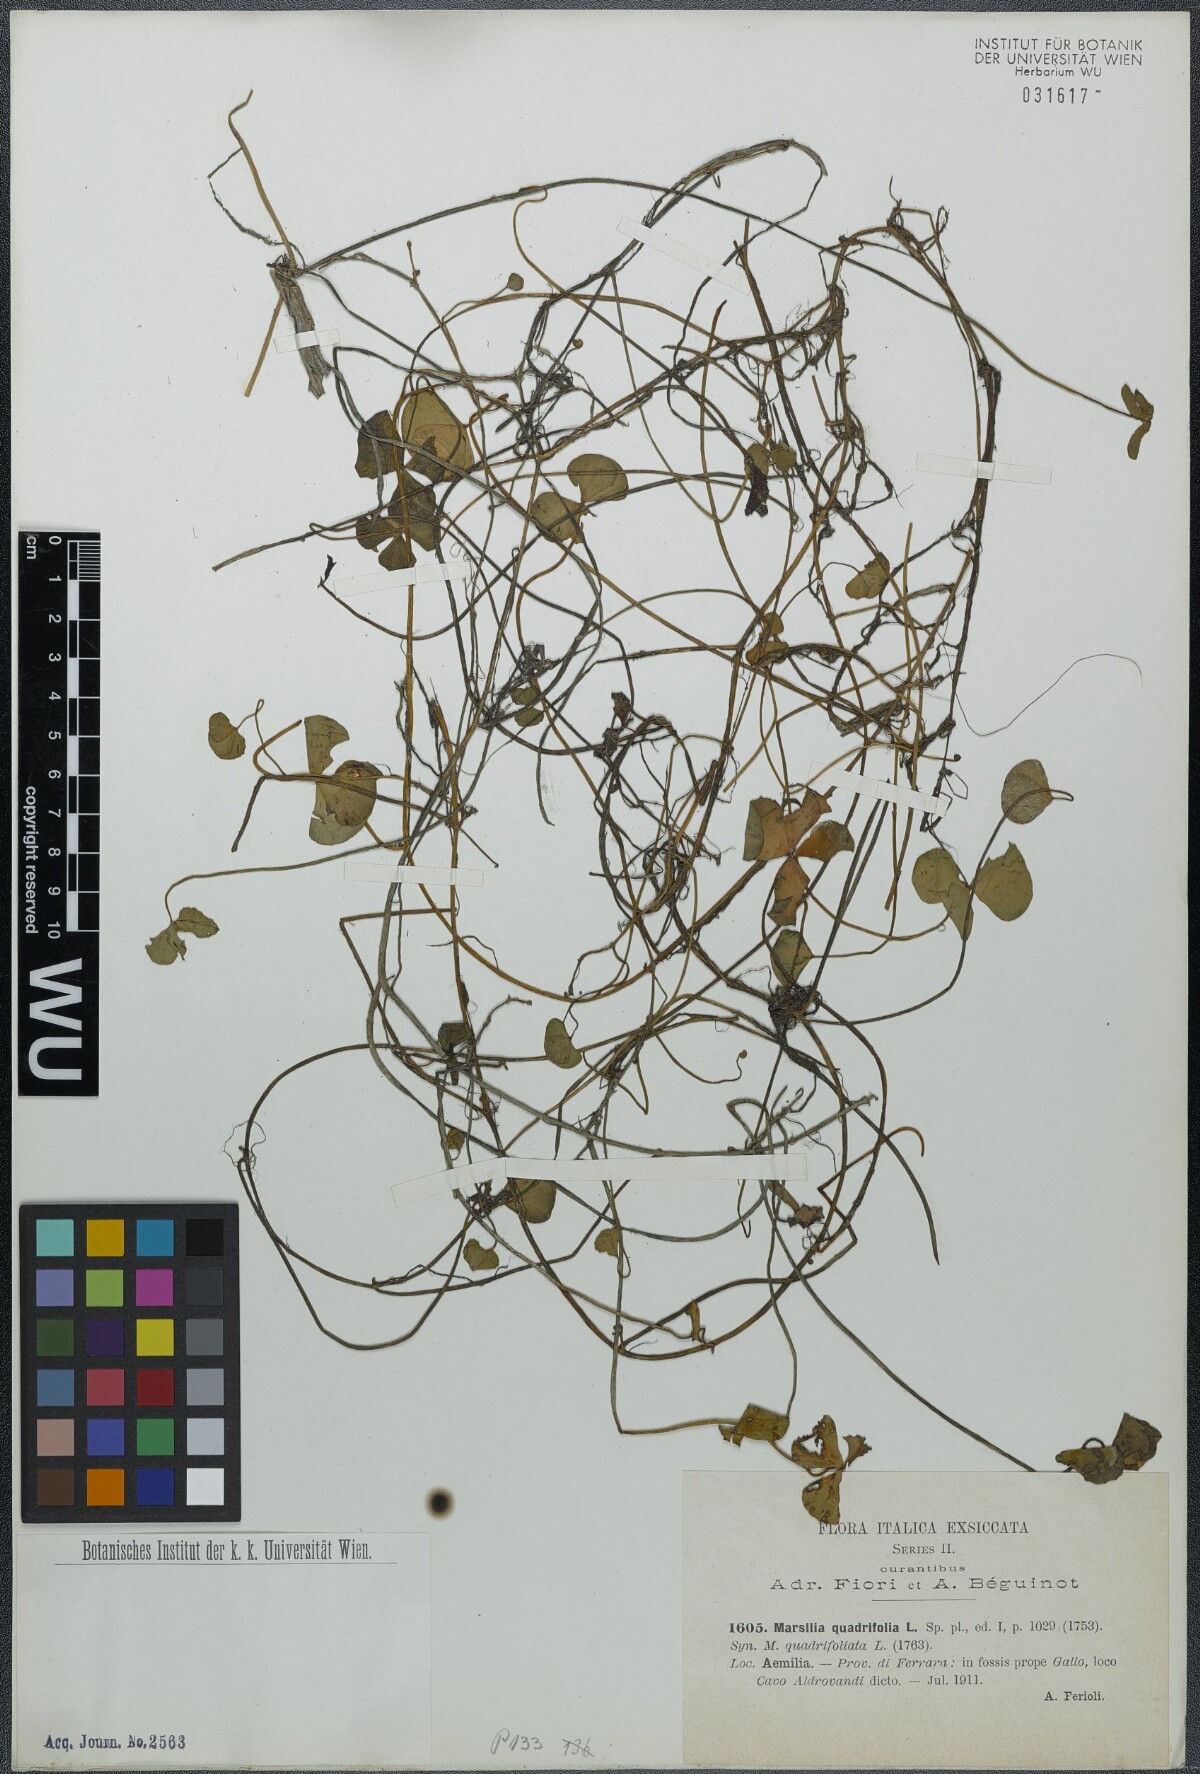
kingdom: Plantae
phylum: Tracheophyta
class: Polypodiopsida
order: Salviniales
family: Marsileaceae
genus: Marsilea
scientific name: Marsilea quadrifolia
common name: Water shamrock
